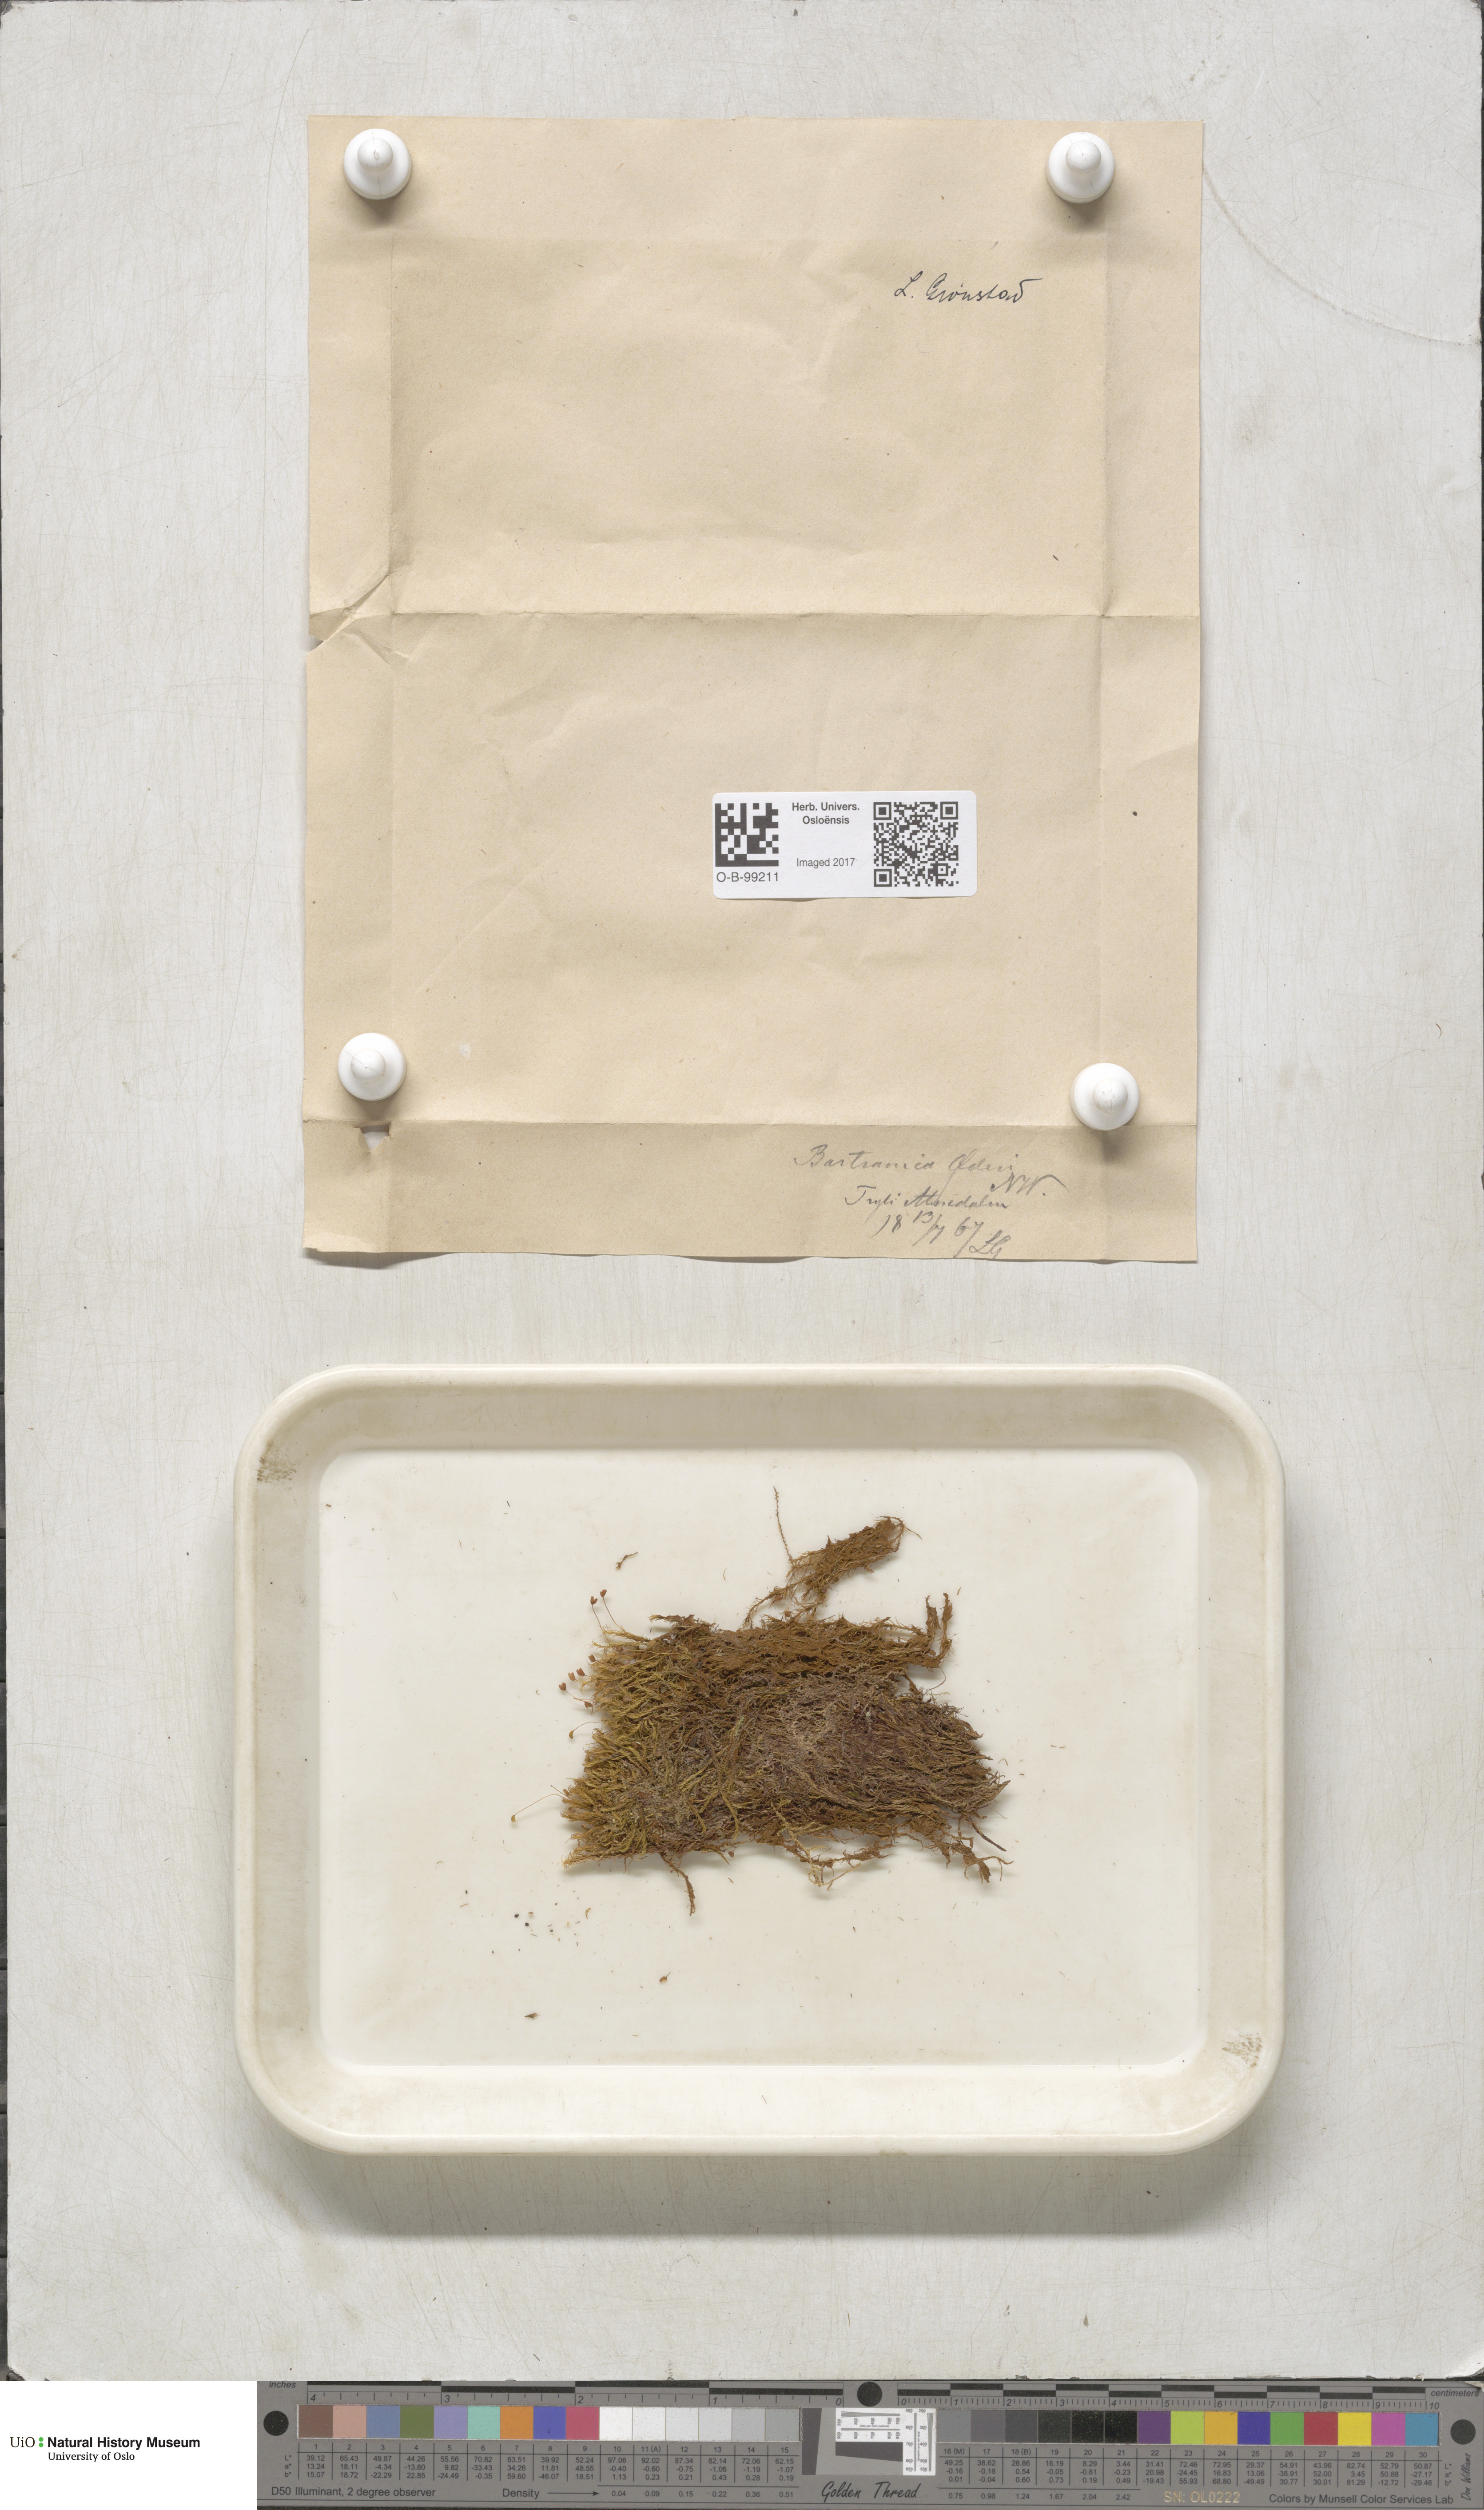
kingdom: Plantae
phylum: Bryophyta
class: Bryopsida
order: Bartramiales
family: Bartramiaceae
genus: Plagiopus
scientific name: Plagiopus oederianus
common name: Oeder's apple moss
